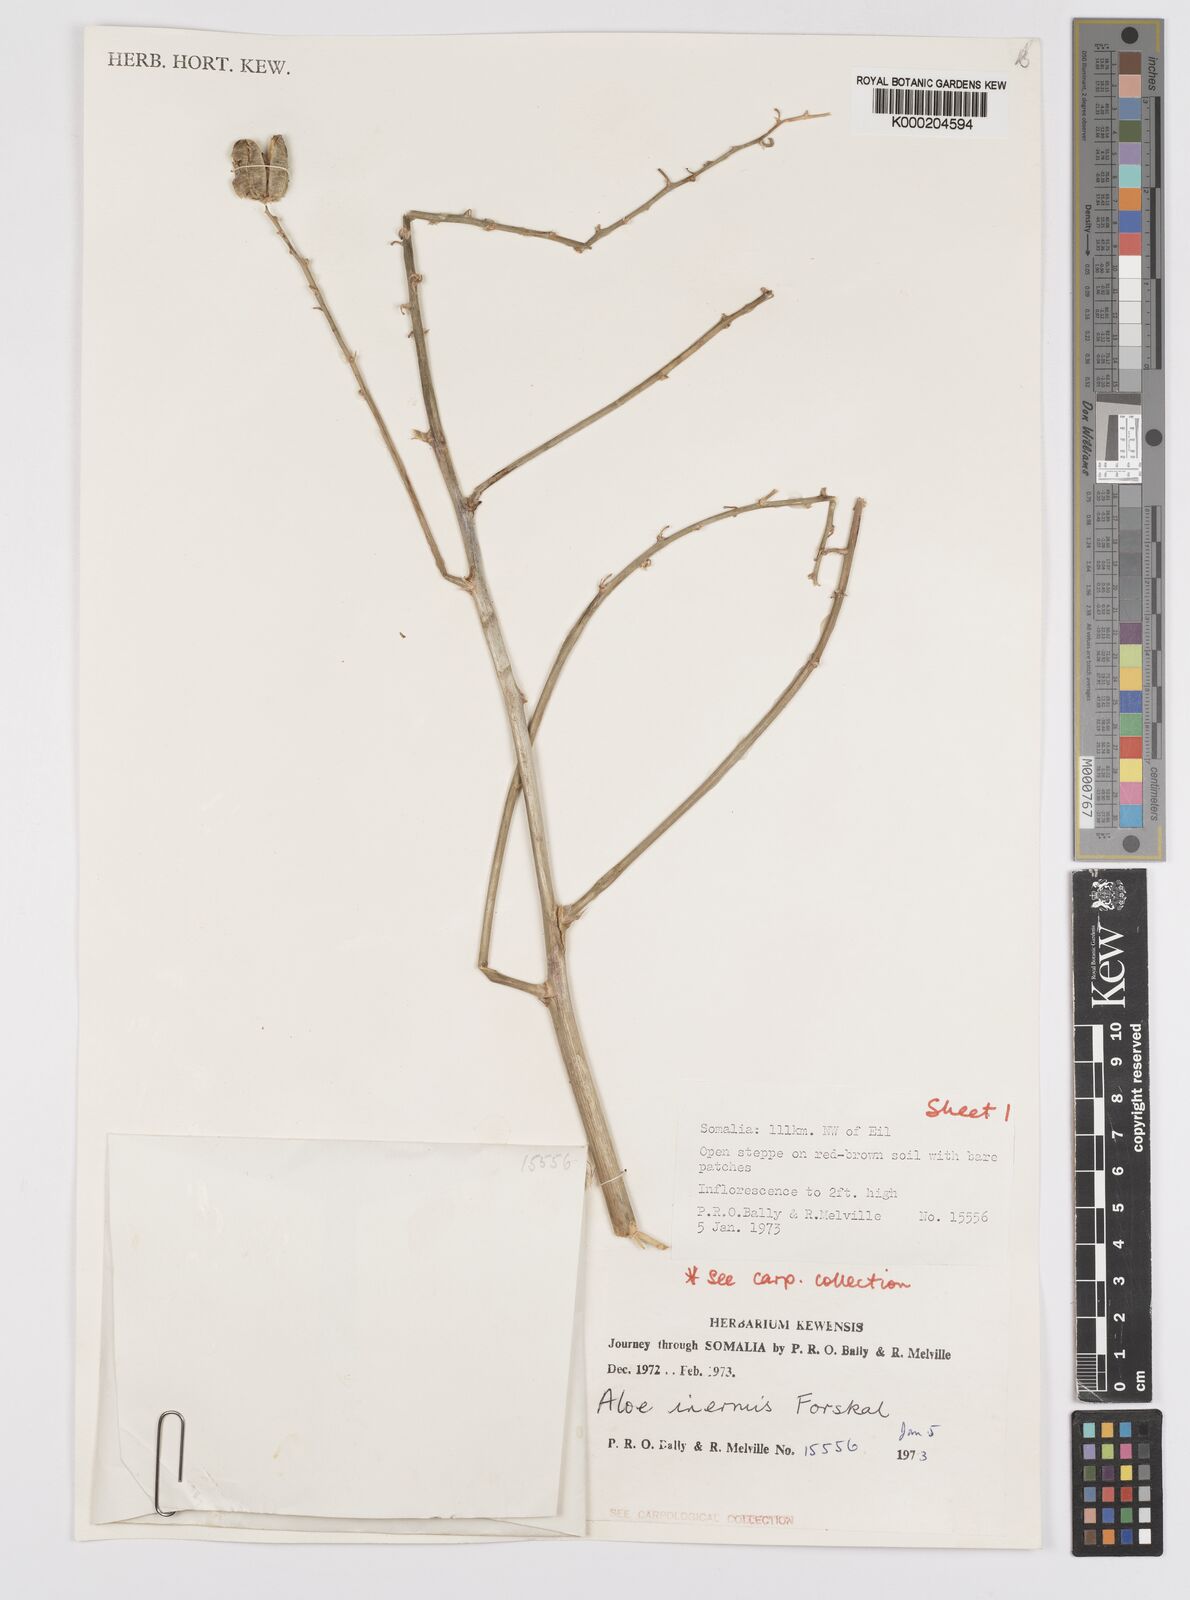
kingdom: Plantae
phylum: Tracheophyta
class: Liliopsida
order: Asparagales
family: Asphodelaceae
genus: Aloe
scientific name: Aloe luntii
